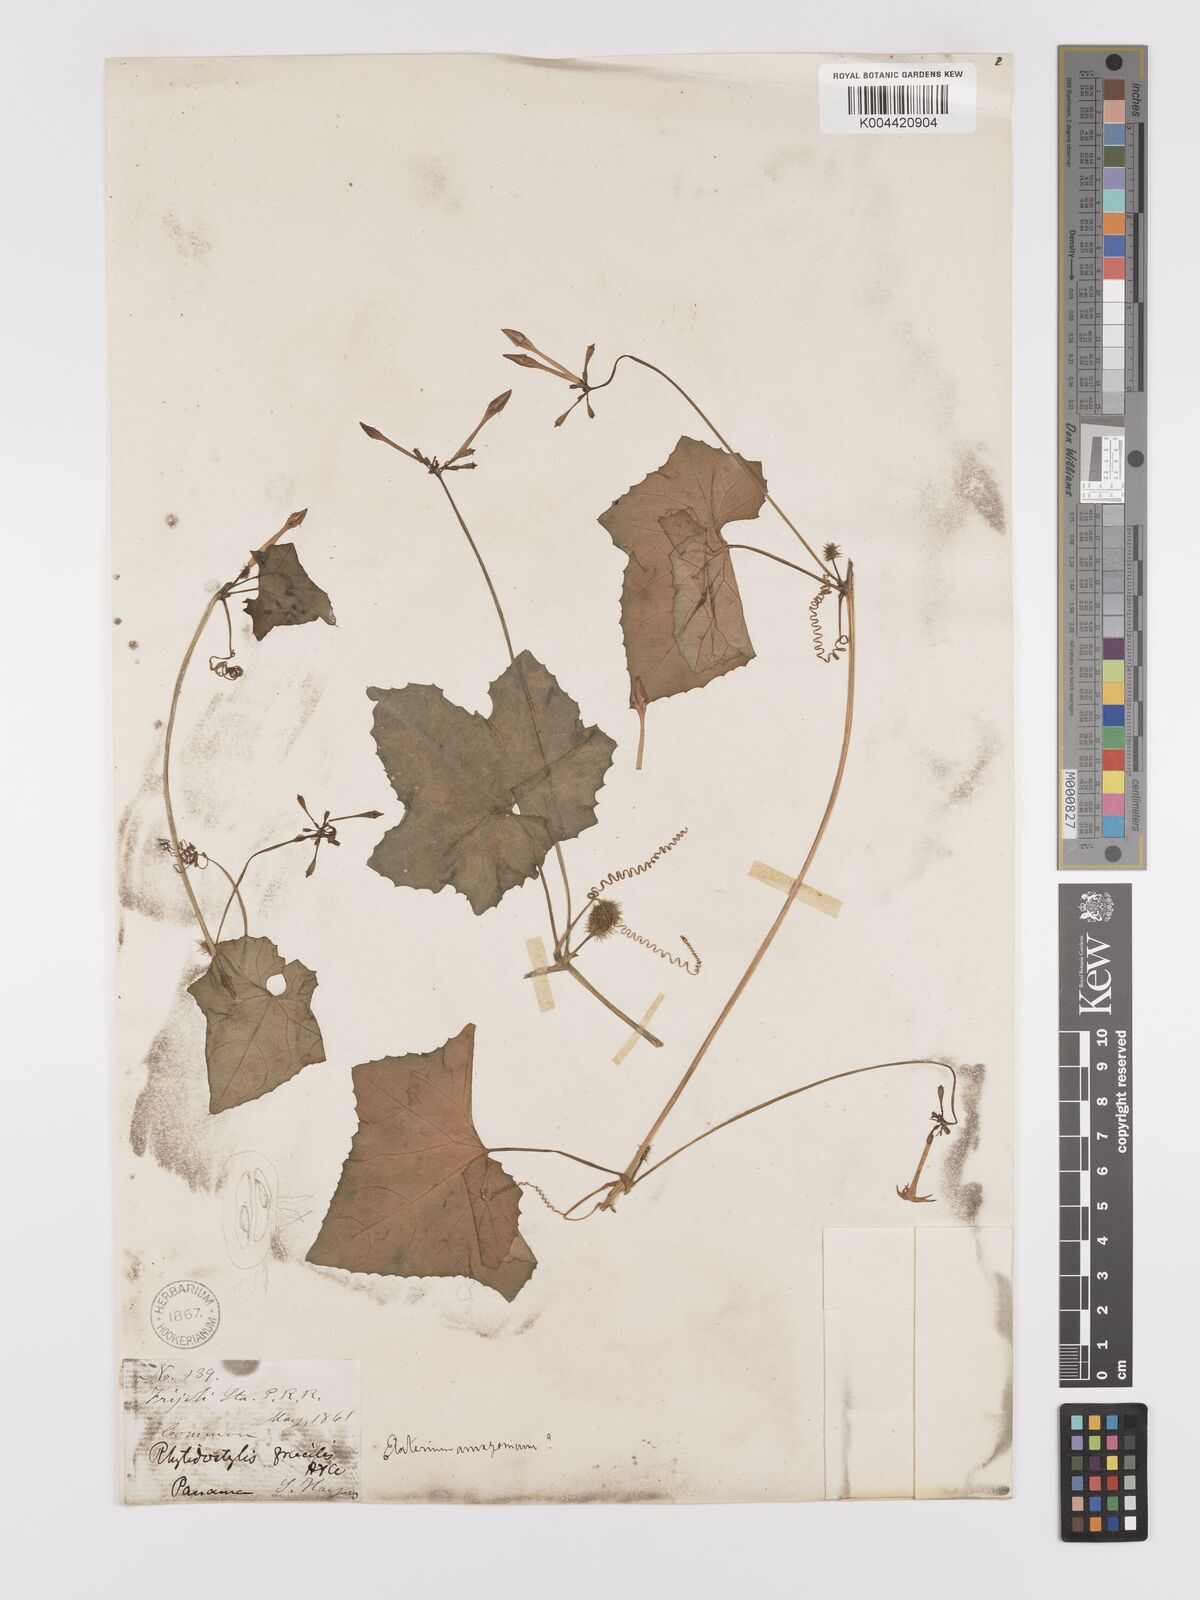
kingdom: Plantae
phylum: Tracheophyta
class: Magnoliopsida
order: Cucurbitales
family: Cucurbitaceae
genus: Cyclanthera
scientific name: Cyclanthera filiformis
